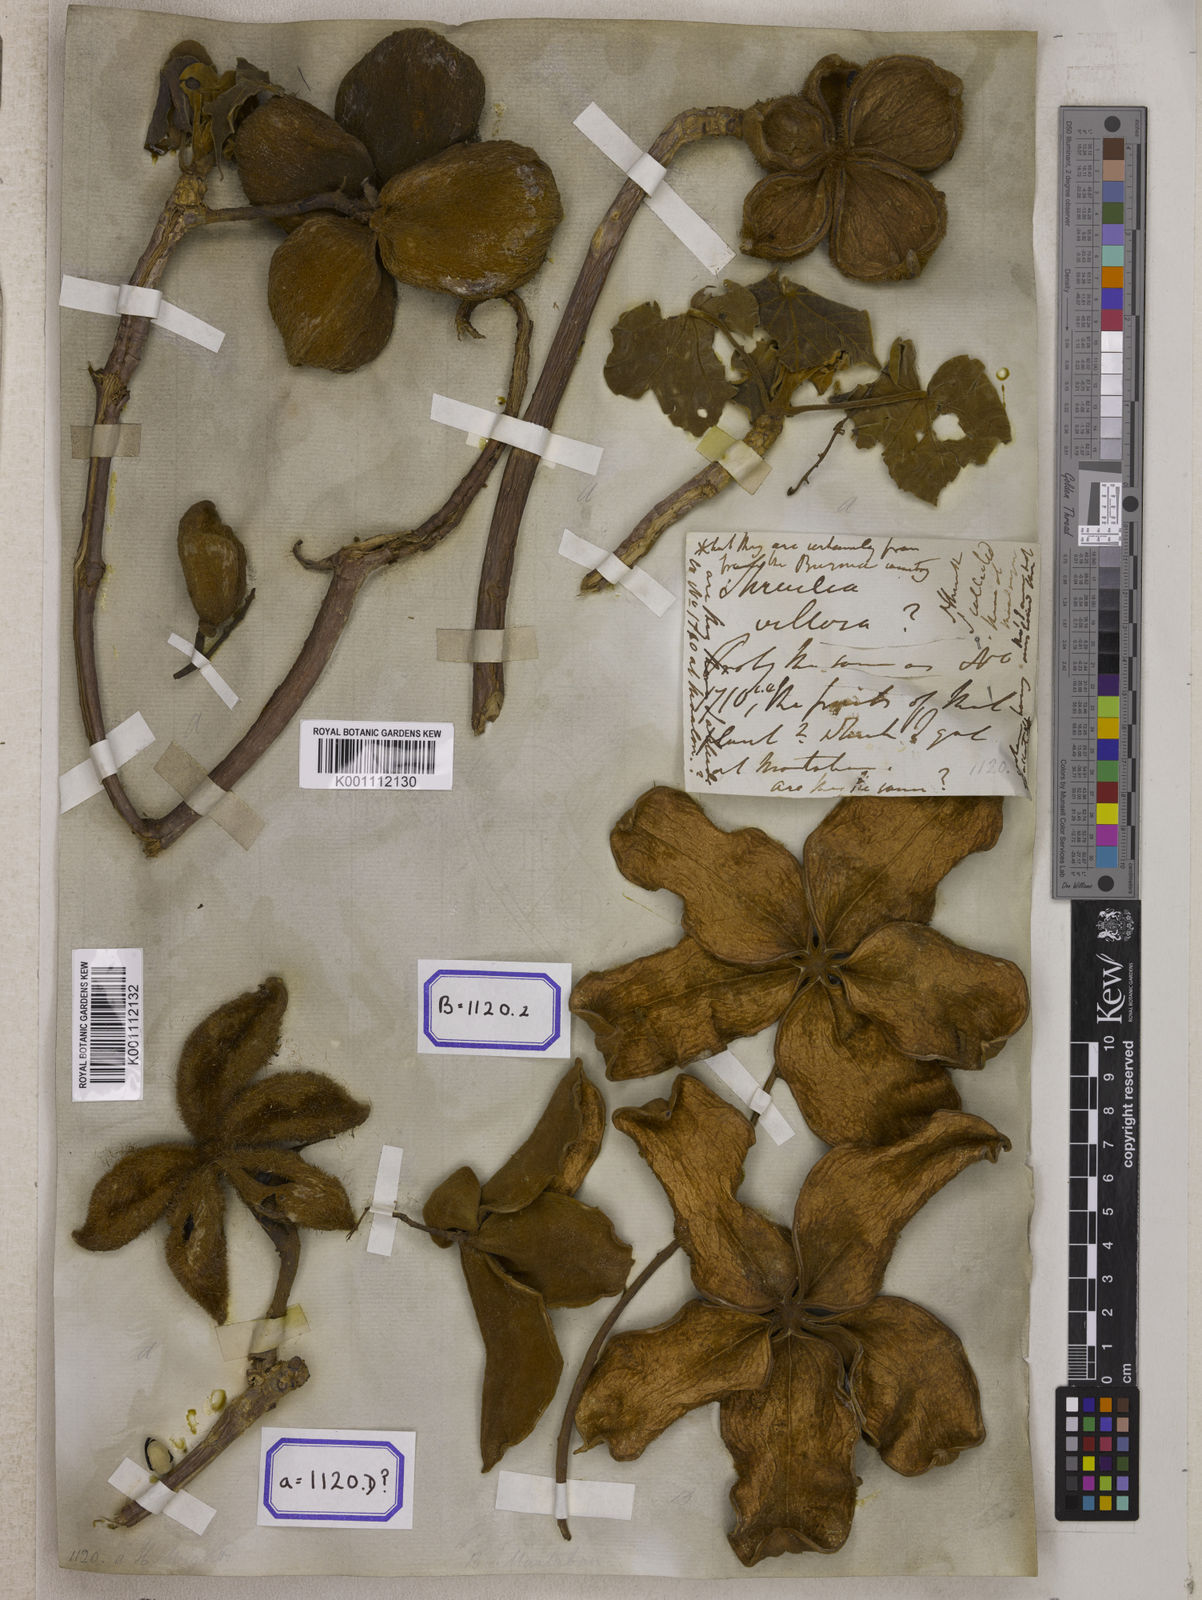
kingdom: Plantae
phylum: Tracheophyta
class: Magnoliopsida
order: Malvales
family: Malvaceae
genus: Sterculia
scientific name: Sterculia urens
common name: Indian-tragacanth
